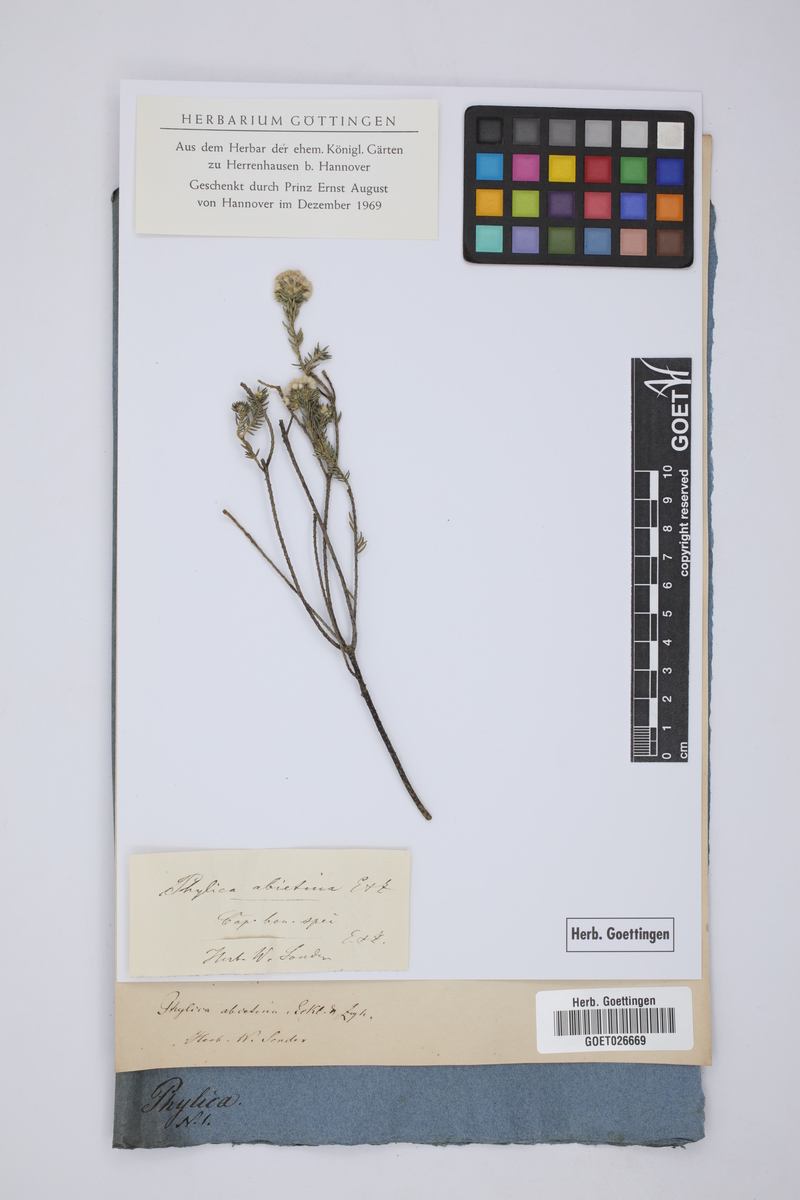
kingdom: Plantae
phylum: Tracheophyta
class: Magnoliopsida
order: Rosales
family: Rhamnaceae
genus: Phylica
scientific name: Phylica abietina
